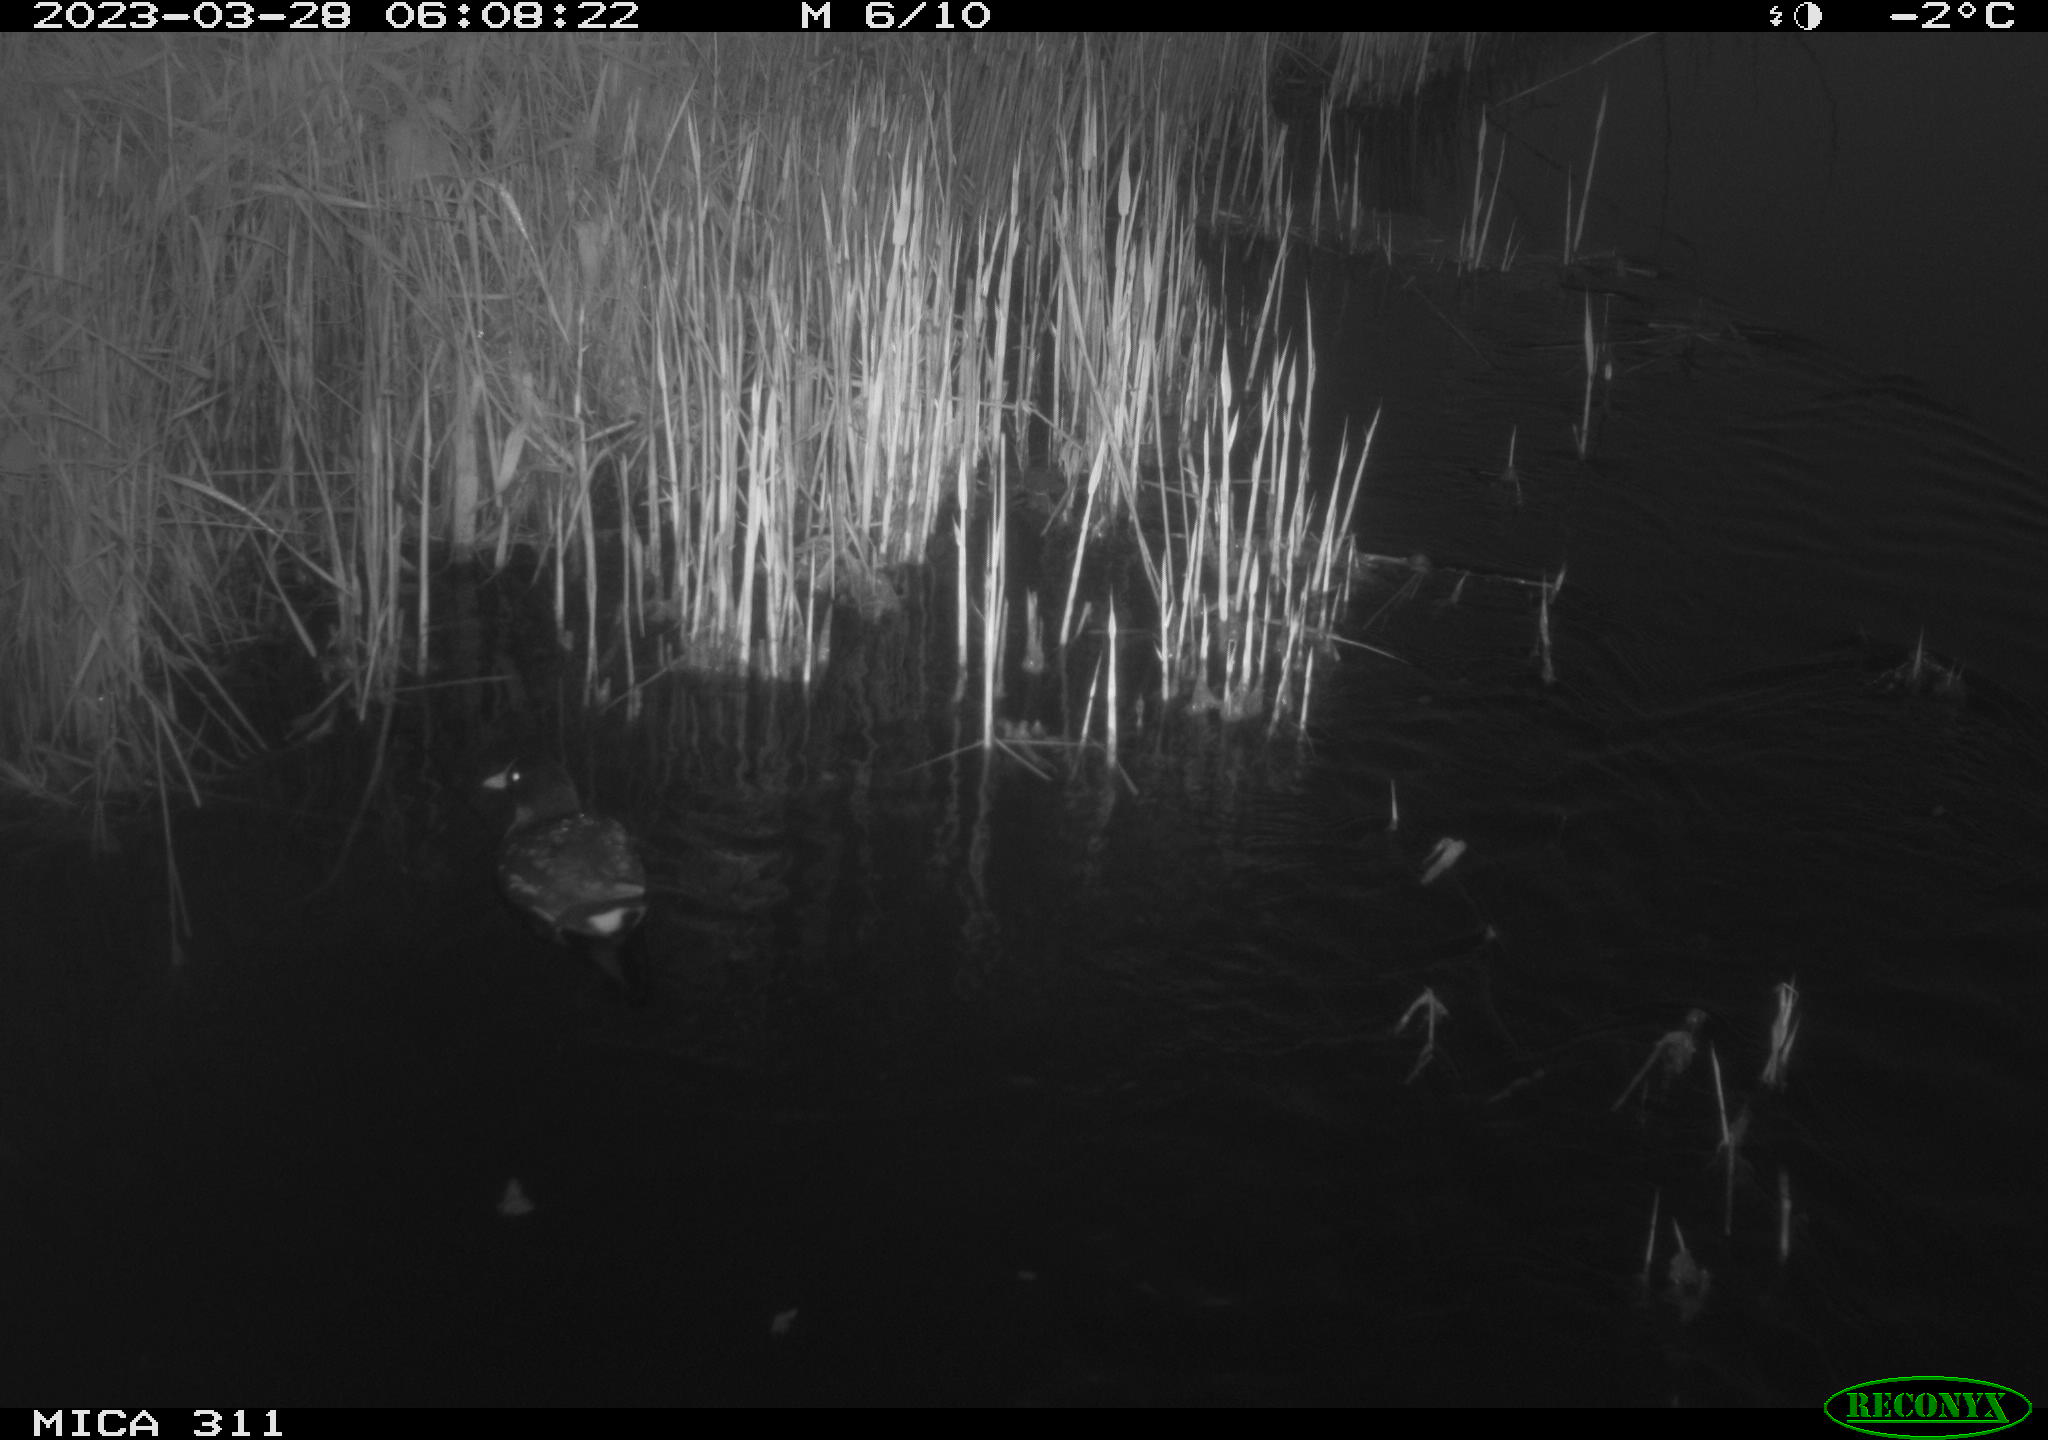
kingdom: Animalia
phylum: Chordata
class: Aves
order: Gruiformes
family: Rallidae
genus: Gallinula
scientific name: Gallinula chloropus
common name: Common moorhen
